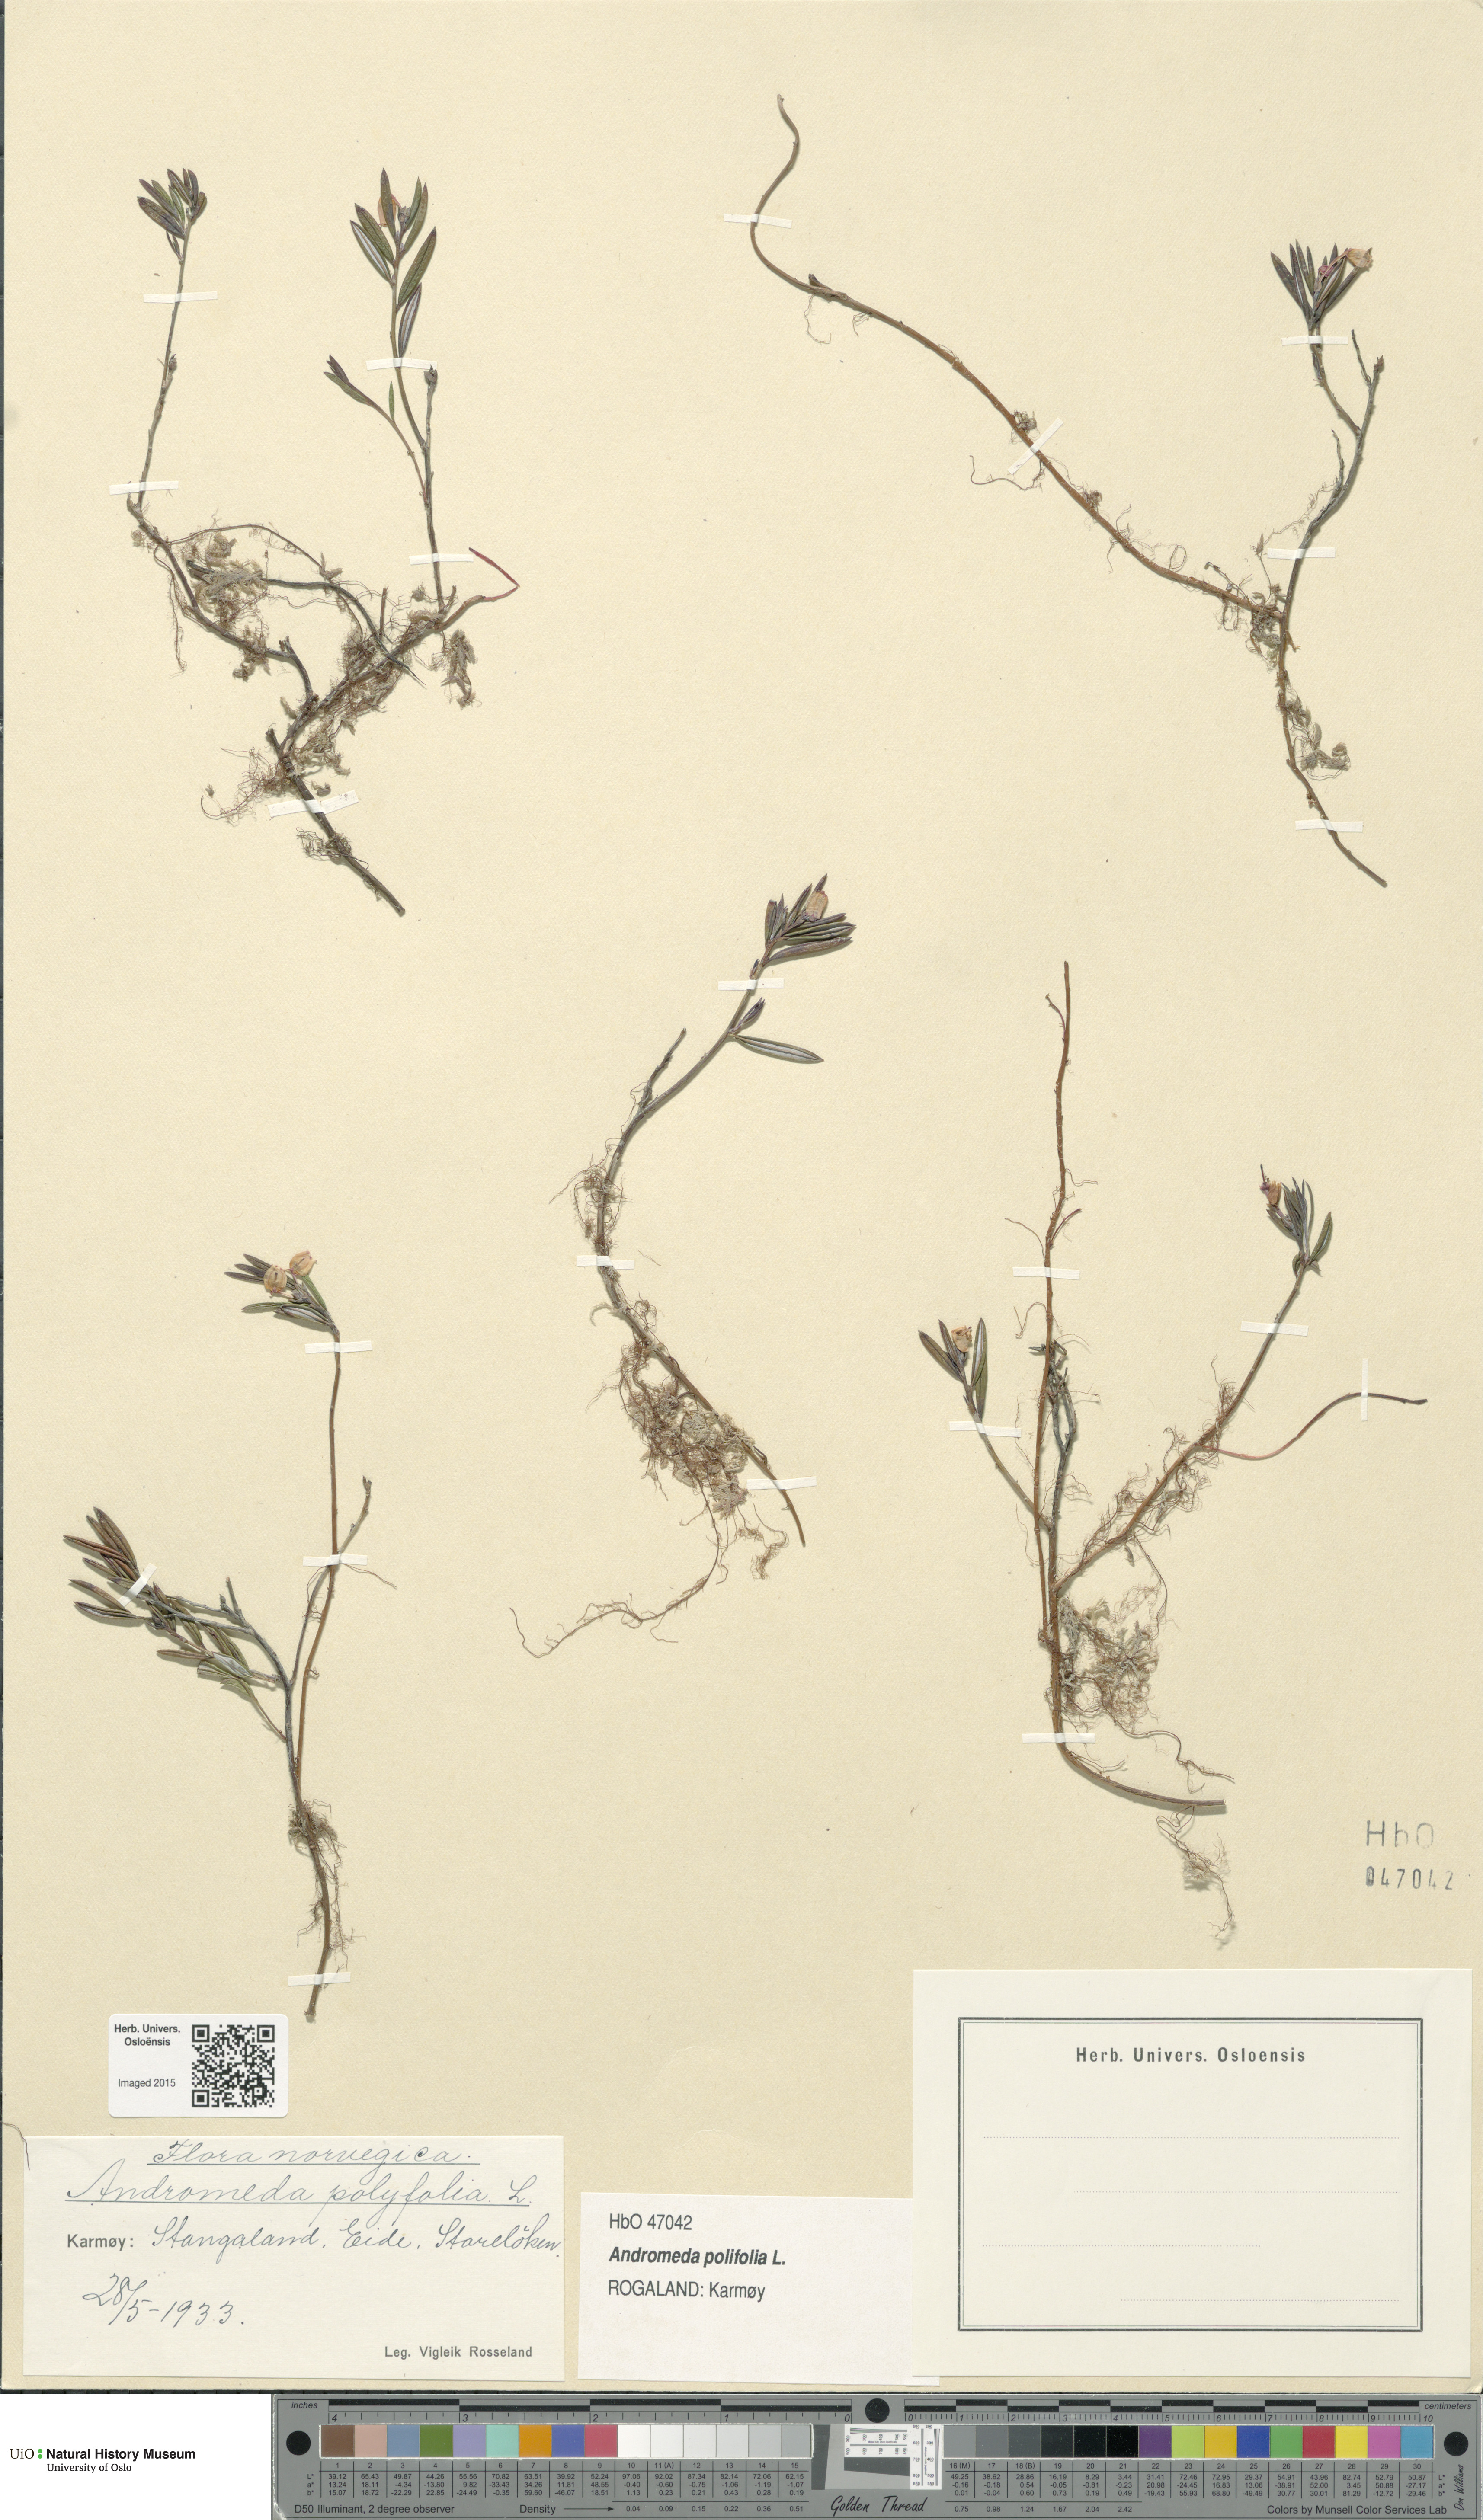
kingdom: Plantae
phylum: Tracheophyta
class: Magnoliopsida
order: Ericales
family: Ericaceae
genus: Andromeda
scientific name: Andromeda polifolia
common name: Bog-rosemary
